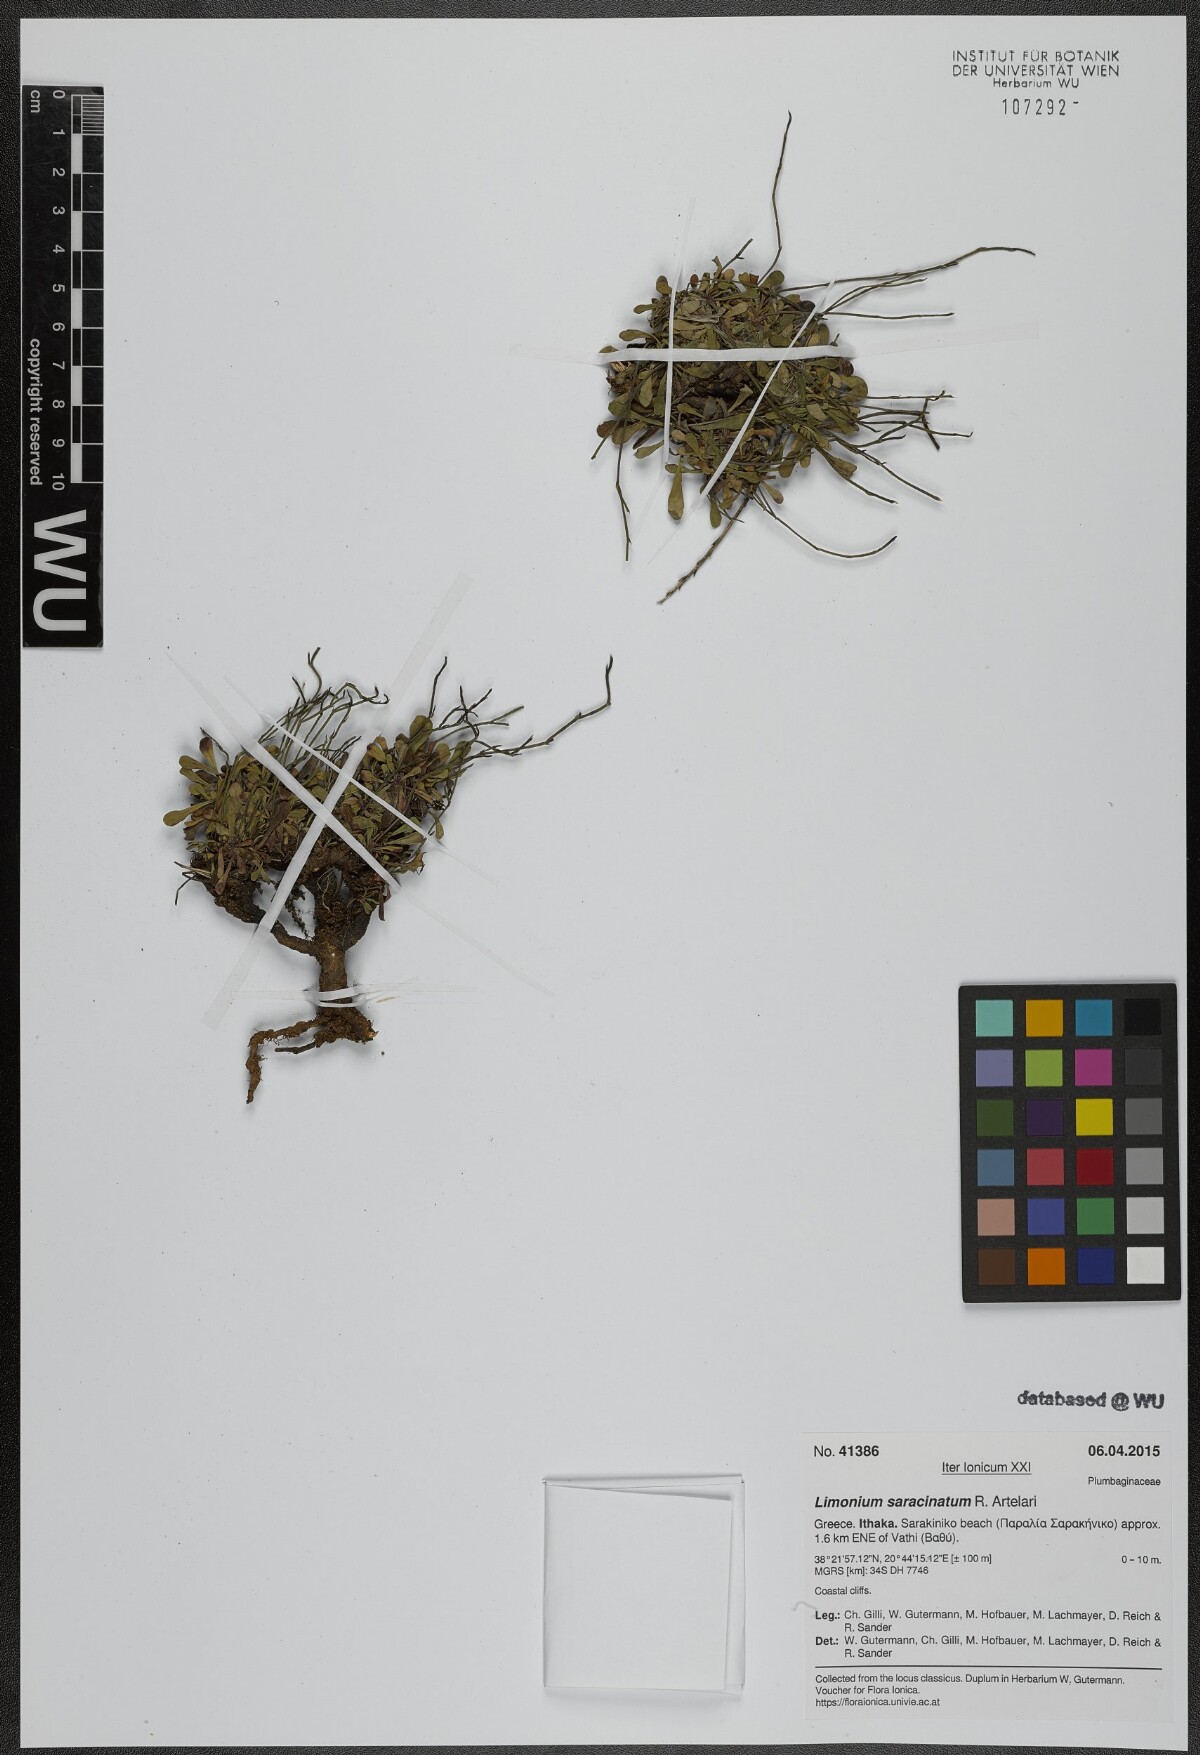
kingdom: Plantae
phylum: Tracheophyta
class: Magnoliopsida
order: Caryophyllales
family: Plumbaginaceae
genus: Limonium
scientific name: Limonium saracinatum
